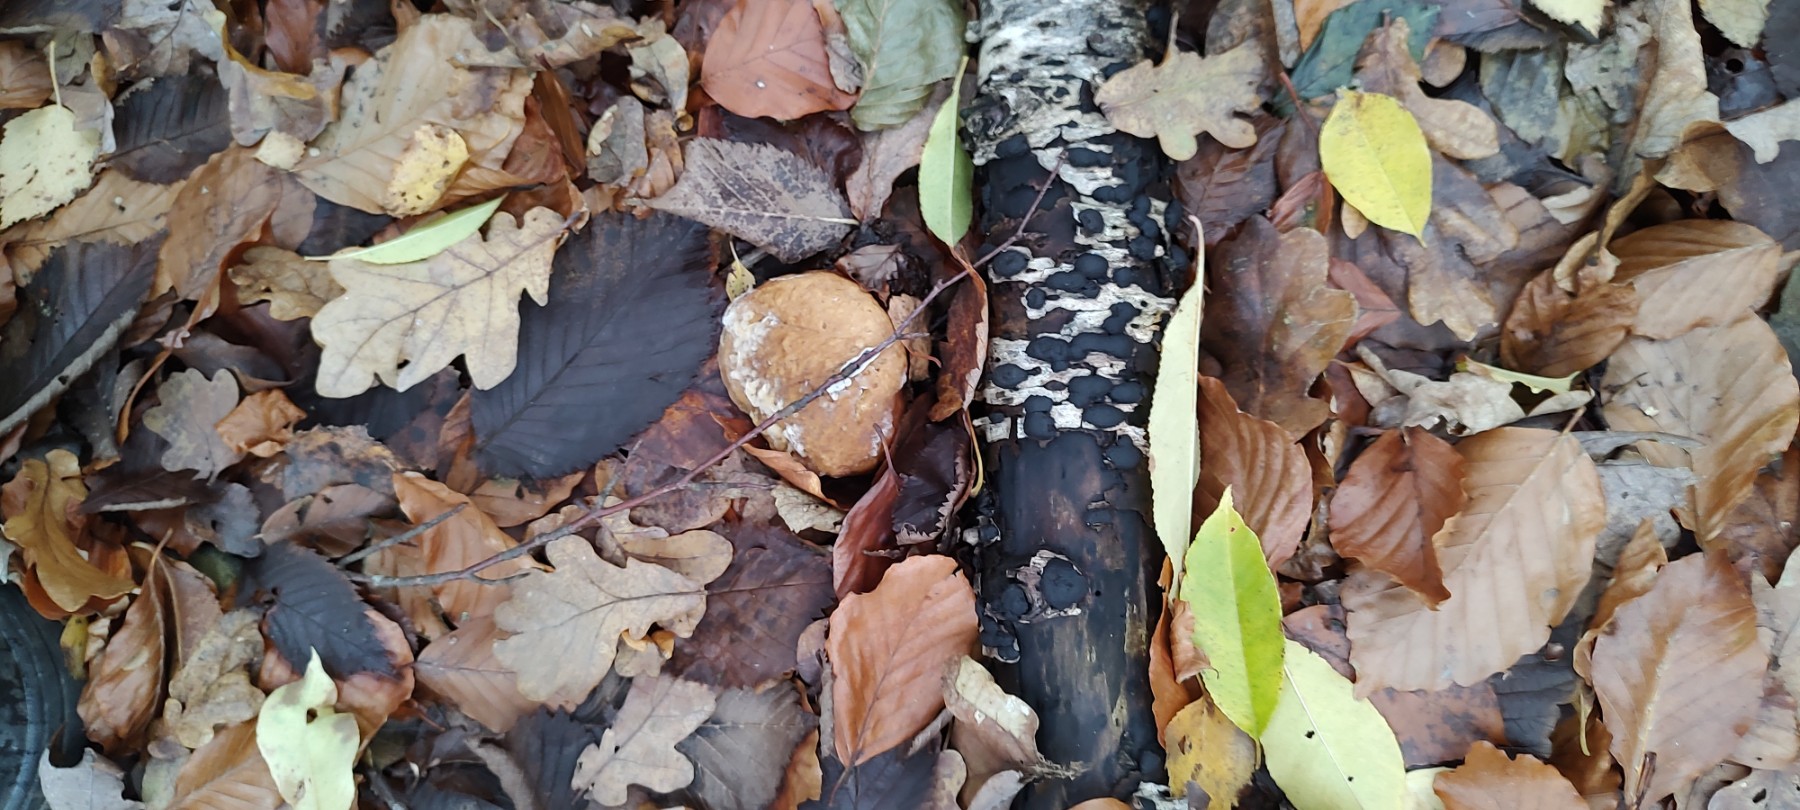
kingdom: Fungi
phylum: Ascomycota
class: Sordariomycetes
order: Xylariales
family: Hypoxylaceae
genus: Jackrogersella
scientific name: Jackrogersella multiformis
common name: foranderlig kulbær
